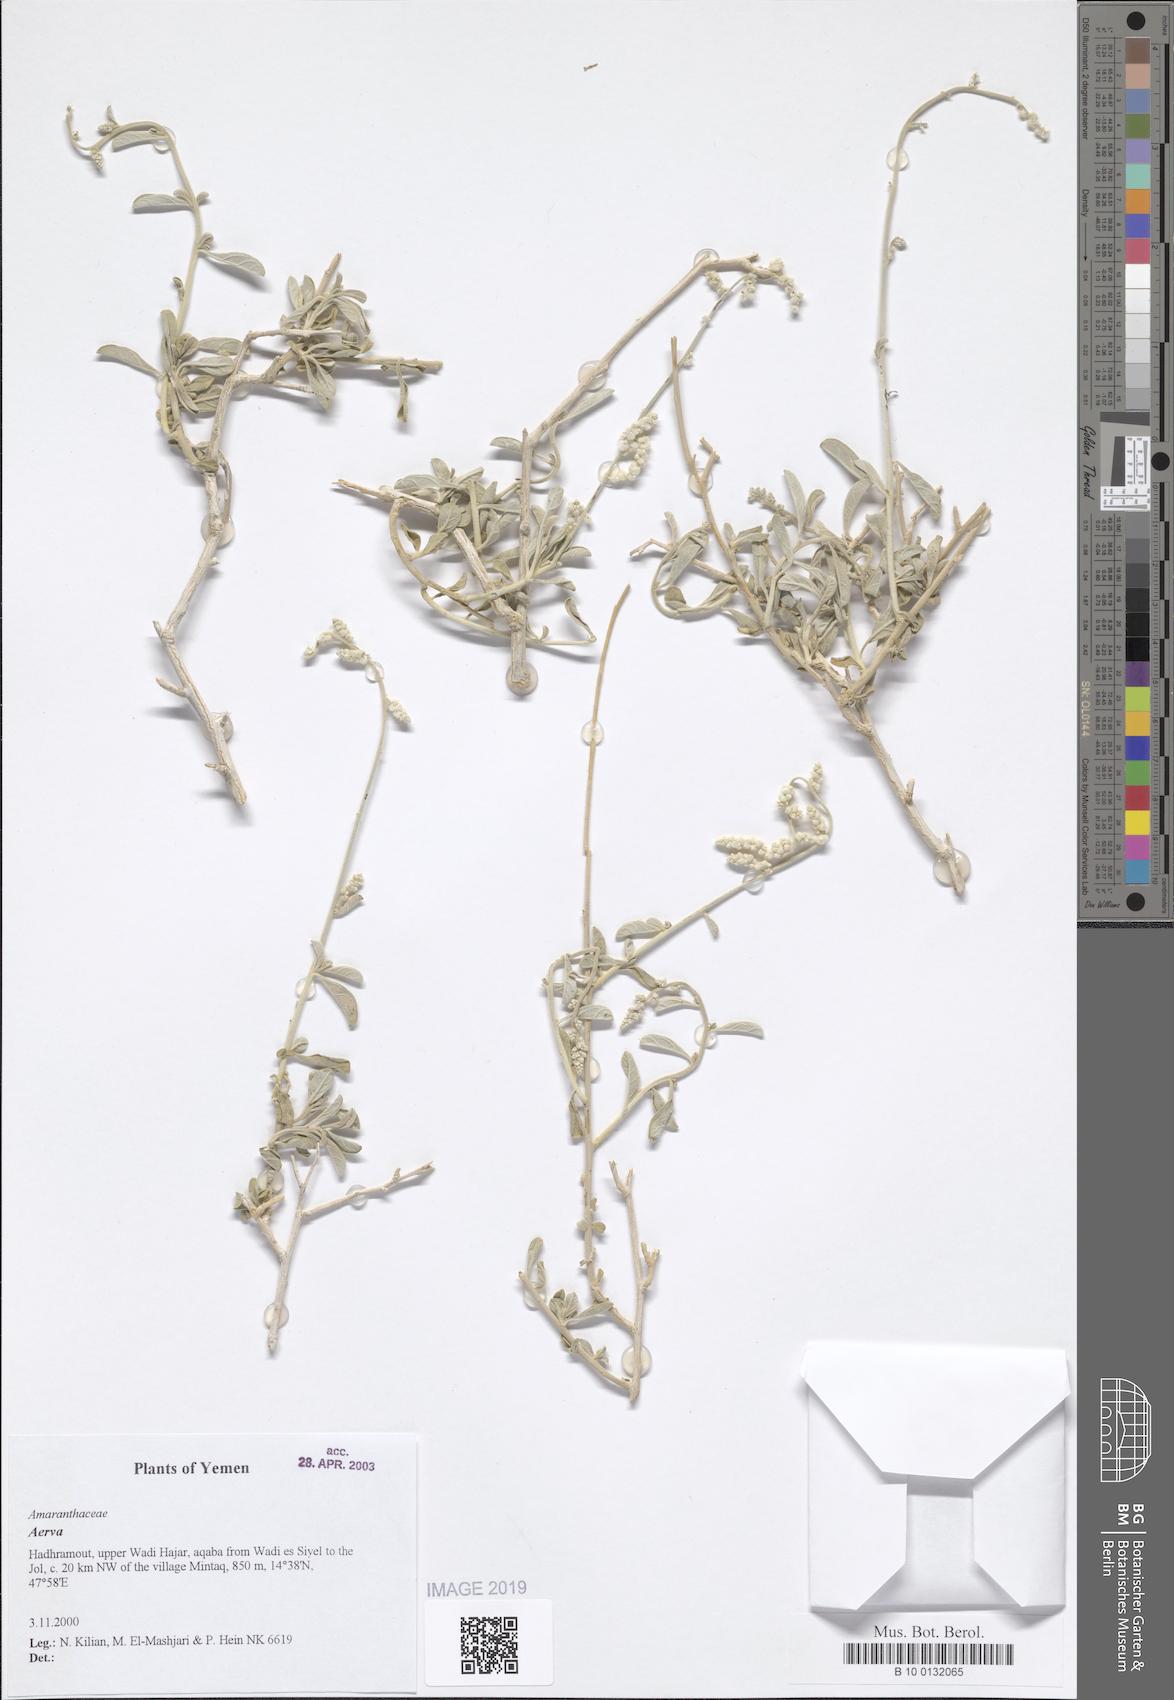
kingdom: Plantae
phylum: Tracheophyta
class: Magnoliopsida
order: Caryophyllales
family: Amaranthaceae
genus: Aerva
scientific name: Aerva
